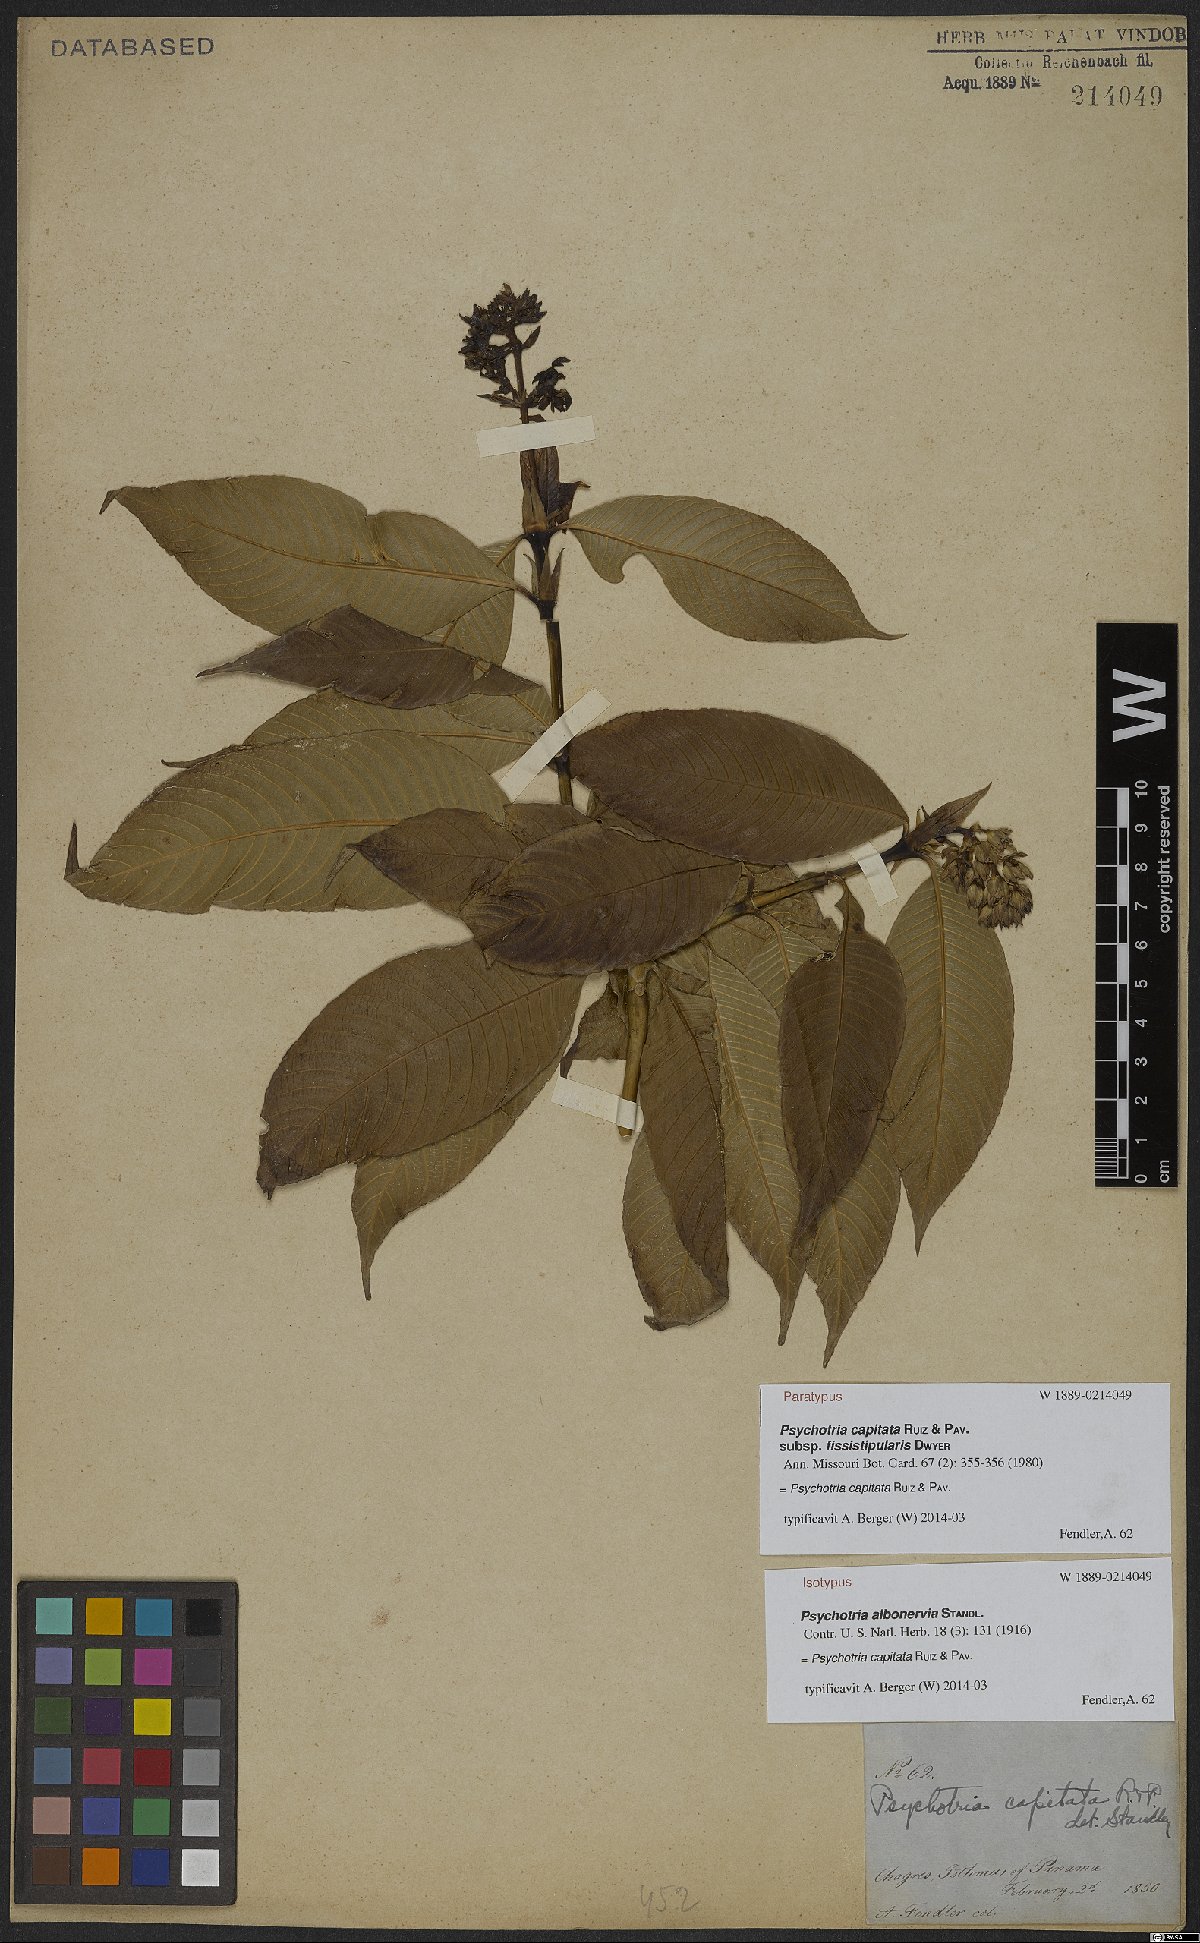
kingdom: Plantae
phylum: Tracheophyta
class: Magnoliopsida
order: Gentianales
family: Rubiaceae
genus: Palicourea
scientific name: Palicourea violacea
